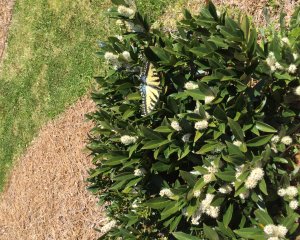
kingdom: Animalia
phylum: Arthropoda
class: Insecta
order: Lepidoptera
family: Papilionidae
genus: Pterourus
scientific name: Pterourus glaucus
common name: Eastern Tiger Swallowtail
